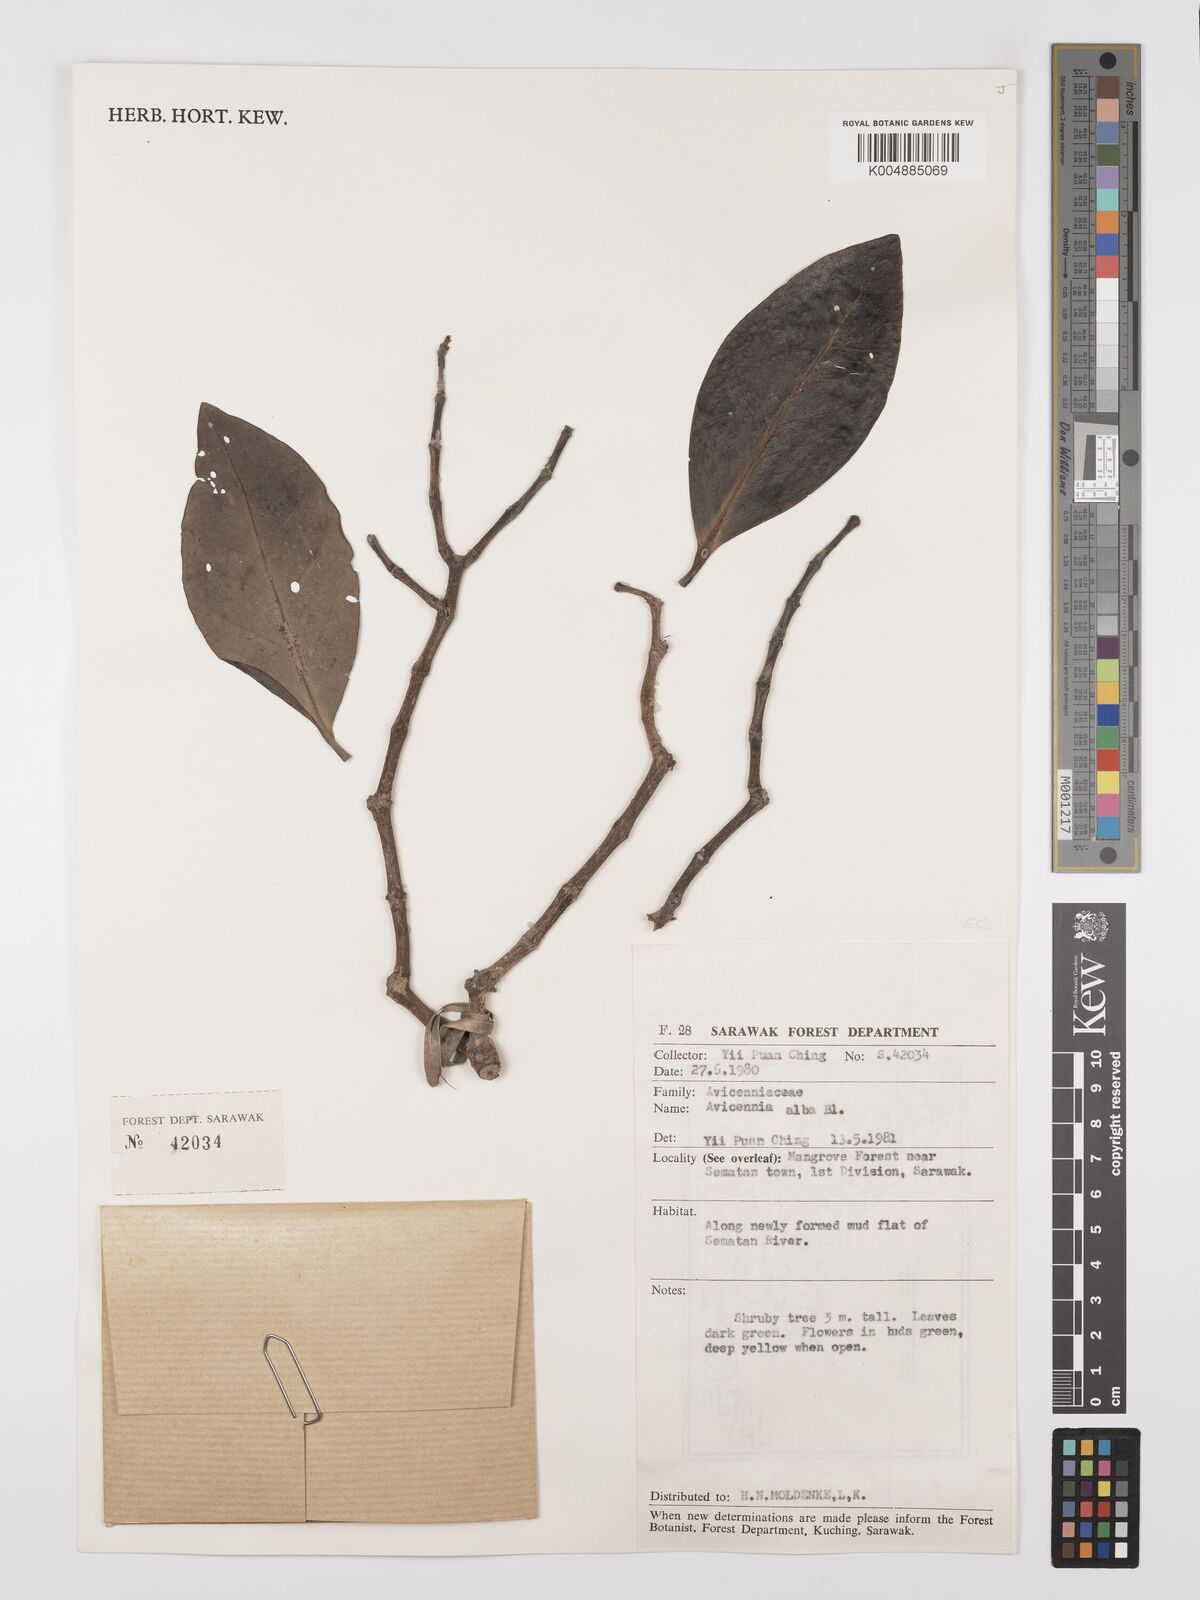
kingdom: Plantae
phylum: Tracheophyta
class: Magnoliopsida
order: Lamiales
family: Acanthaceae
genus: Avicennia
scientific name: Avicennia alba
